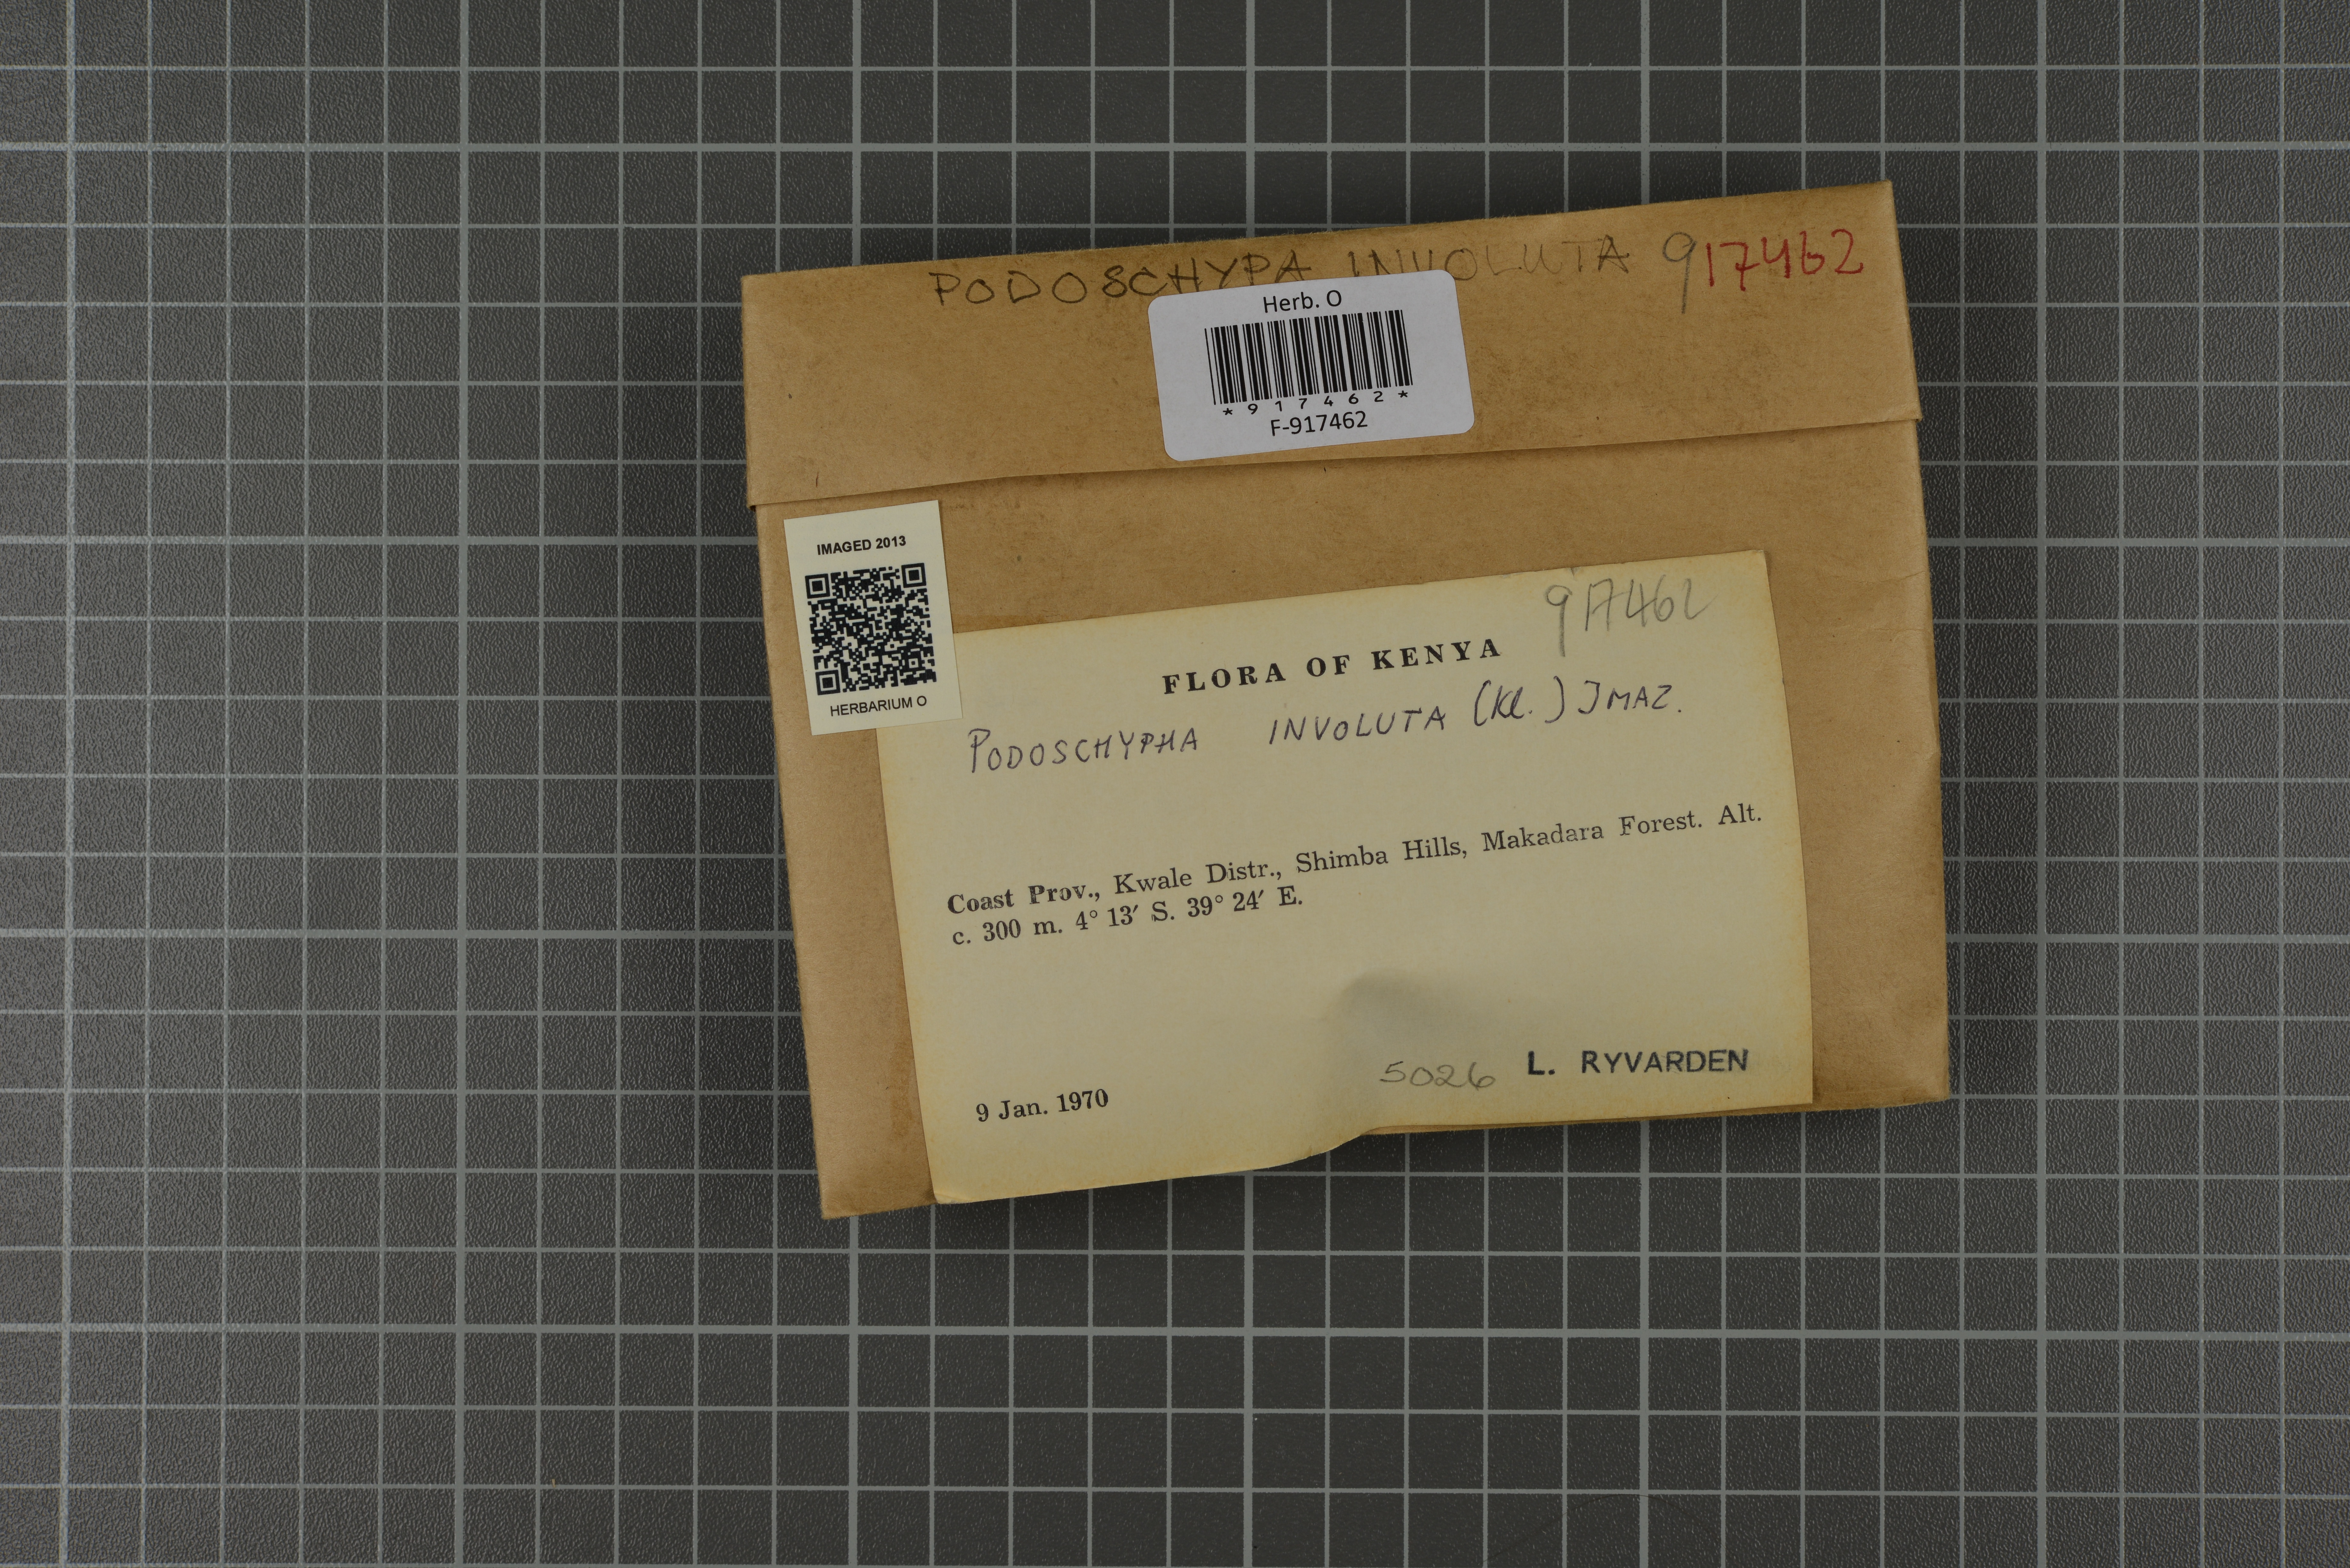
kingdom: Fungi
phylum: Basidiomycota
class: Agaricomycetes
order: Polyporales
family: Podoscyphaceae
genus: Podoscypha
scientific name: Podoscypha involuta
